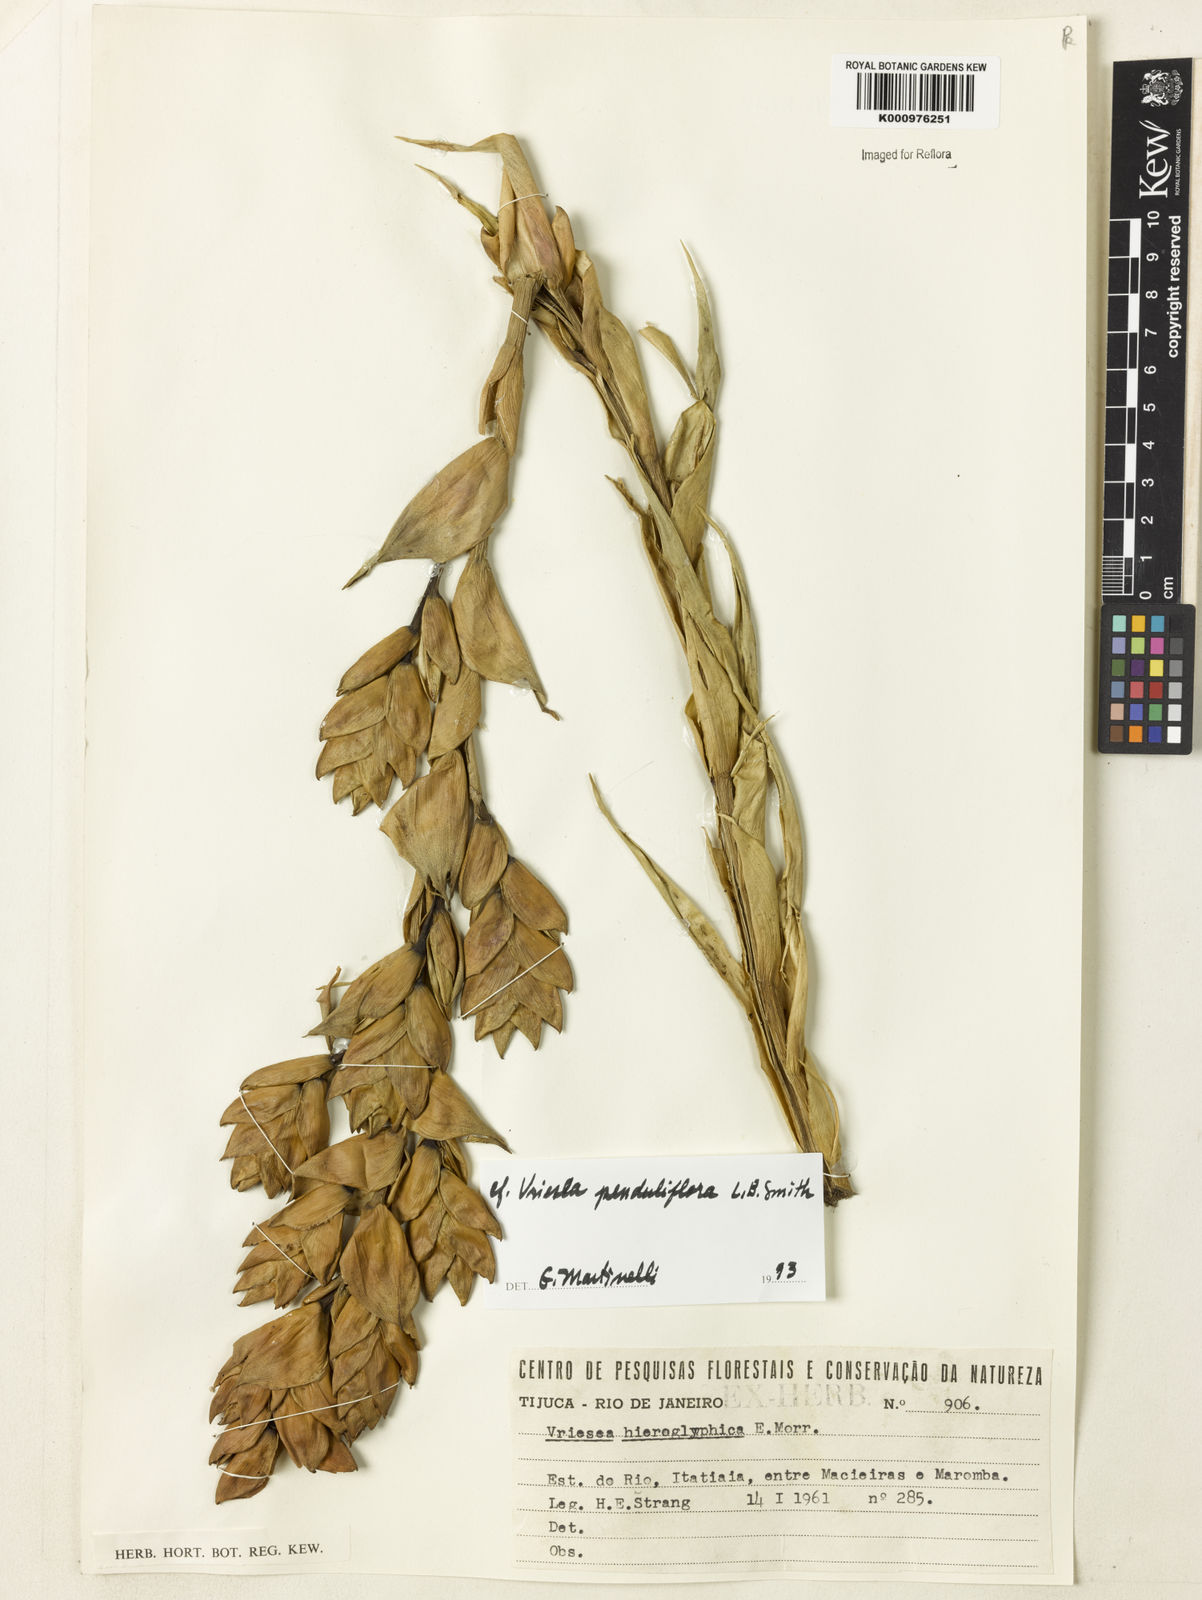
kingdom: Plantae
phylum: Tracheophyta
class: Liliopsida
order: Poales
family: Bromeliaceae
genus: Vriesea
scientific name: Vriesea
